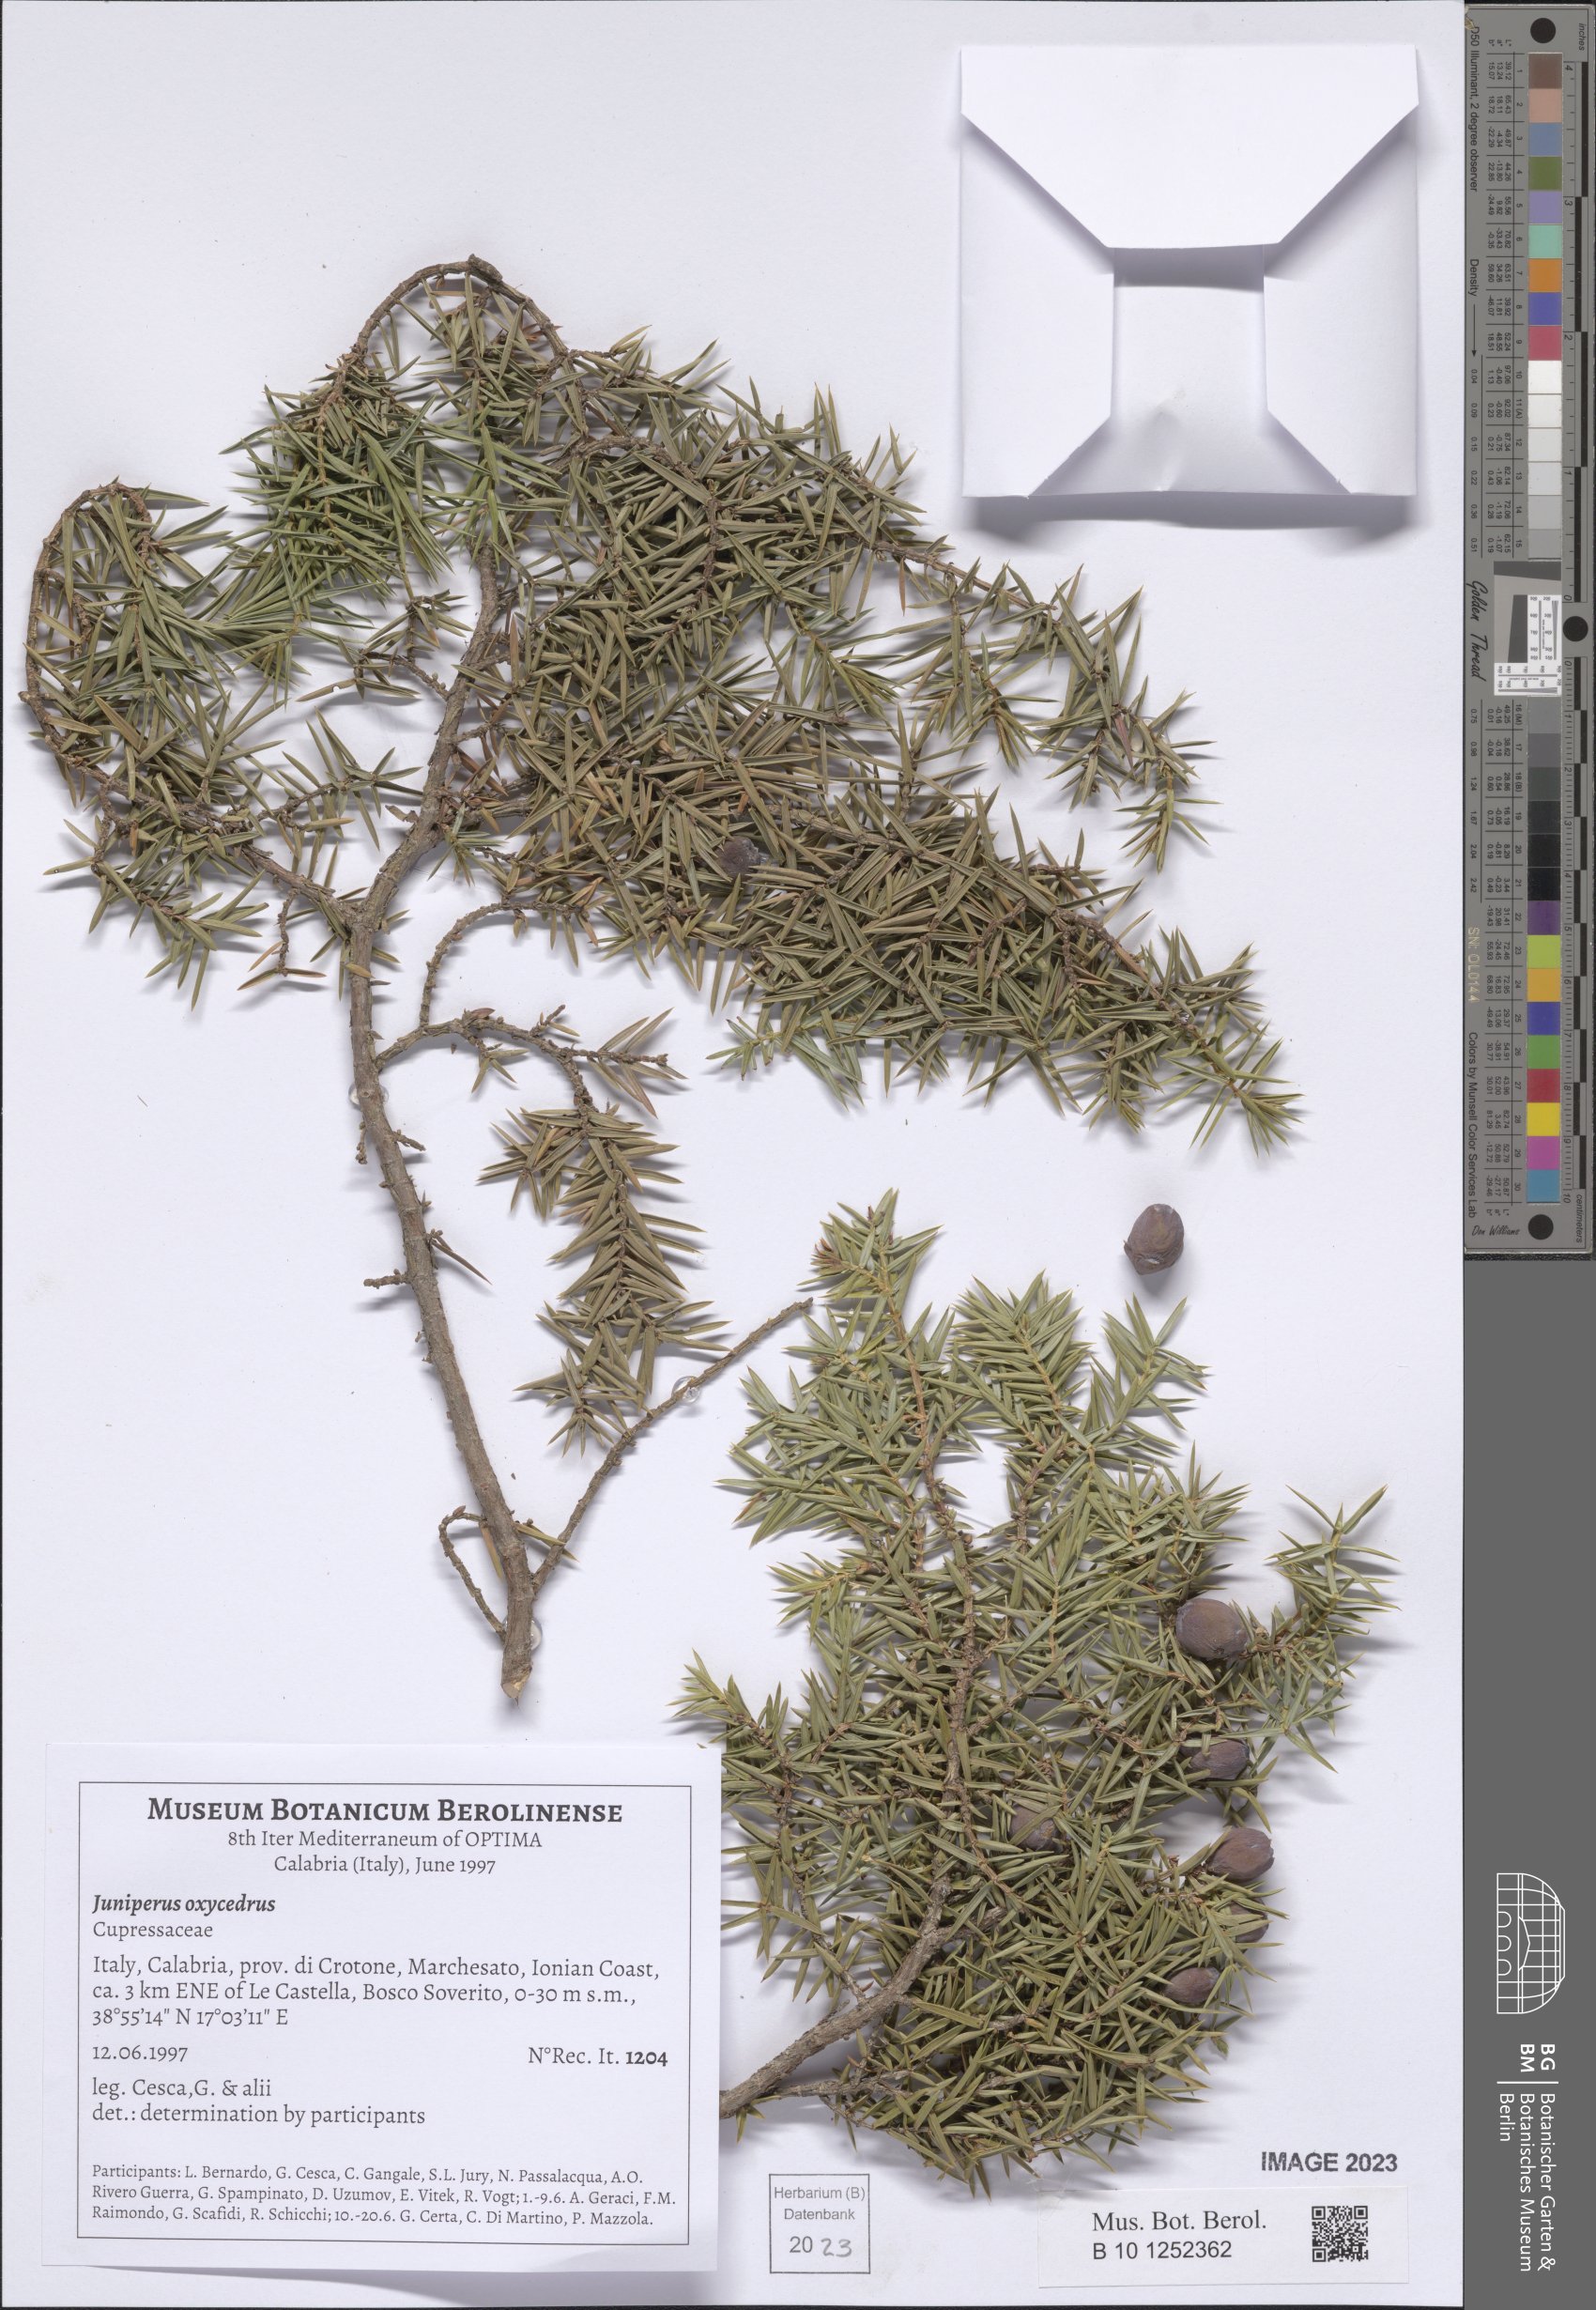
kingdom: Plantae
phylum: Tracheophyta
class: Pinopsida
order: Pinales
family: Cupressaceae
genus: Juniperus
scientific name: Juniperus oxycedrus
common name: Prickly juniper
